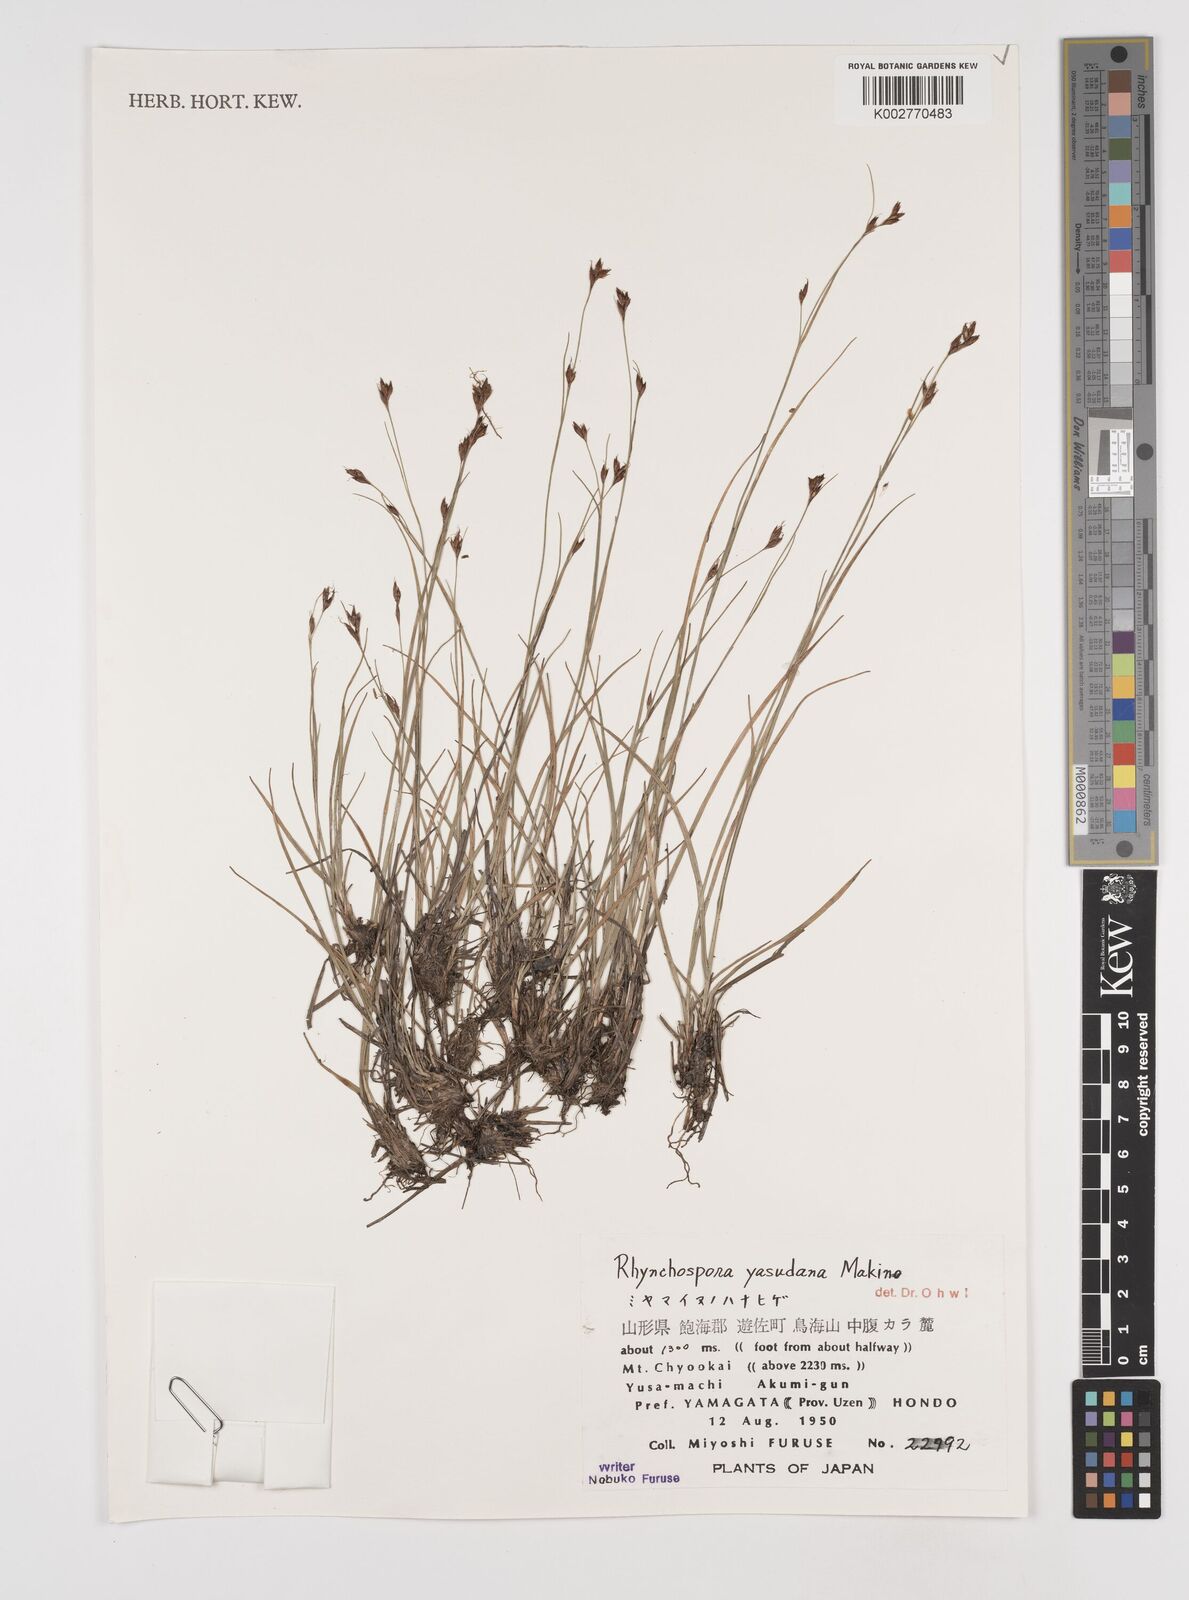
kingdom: Plantae
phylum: Tracheophyta
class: Liliopsida
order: Poales
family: Cyperaceae
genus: Rhynchospora
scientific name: Rhynchospora fujiiana
